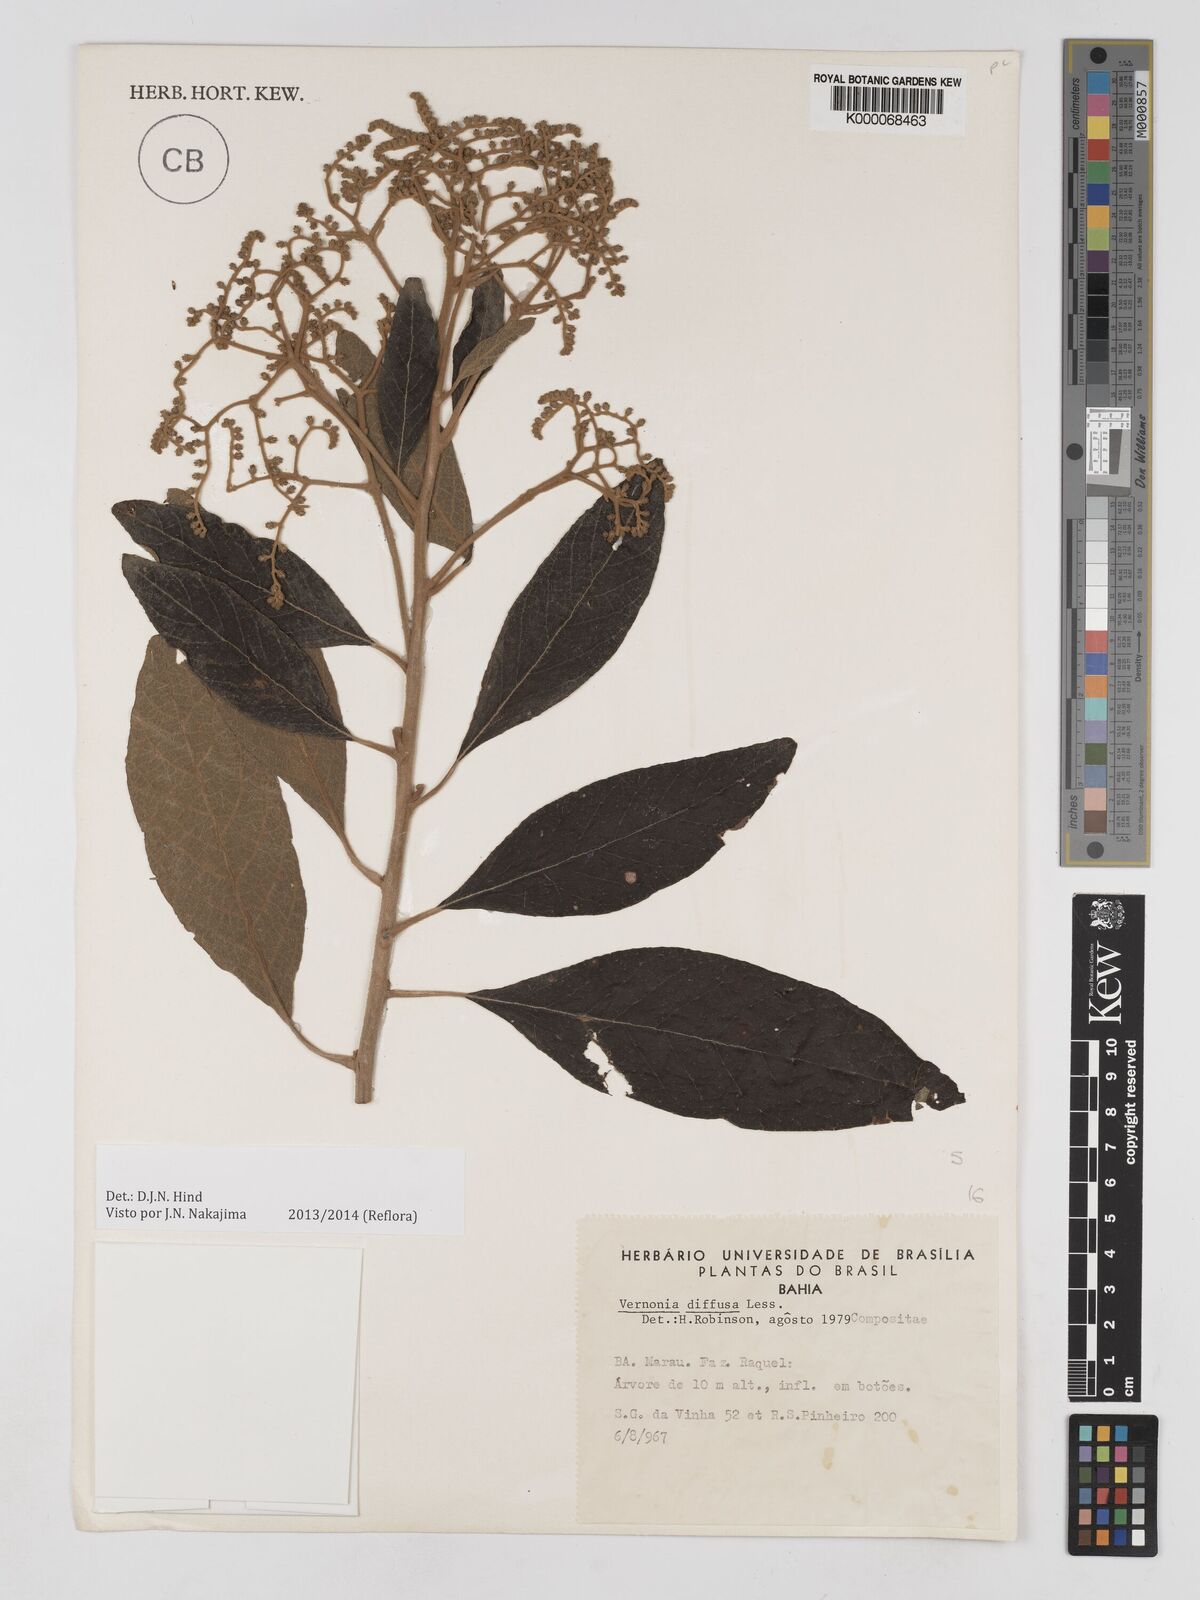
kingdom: Plantae
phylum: Tracheophyta
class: Magnoliopsida
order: Asterales
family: Asteraceae
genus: Vernonanthura
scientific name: Vernonanthura divaricata
